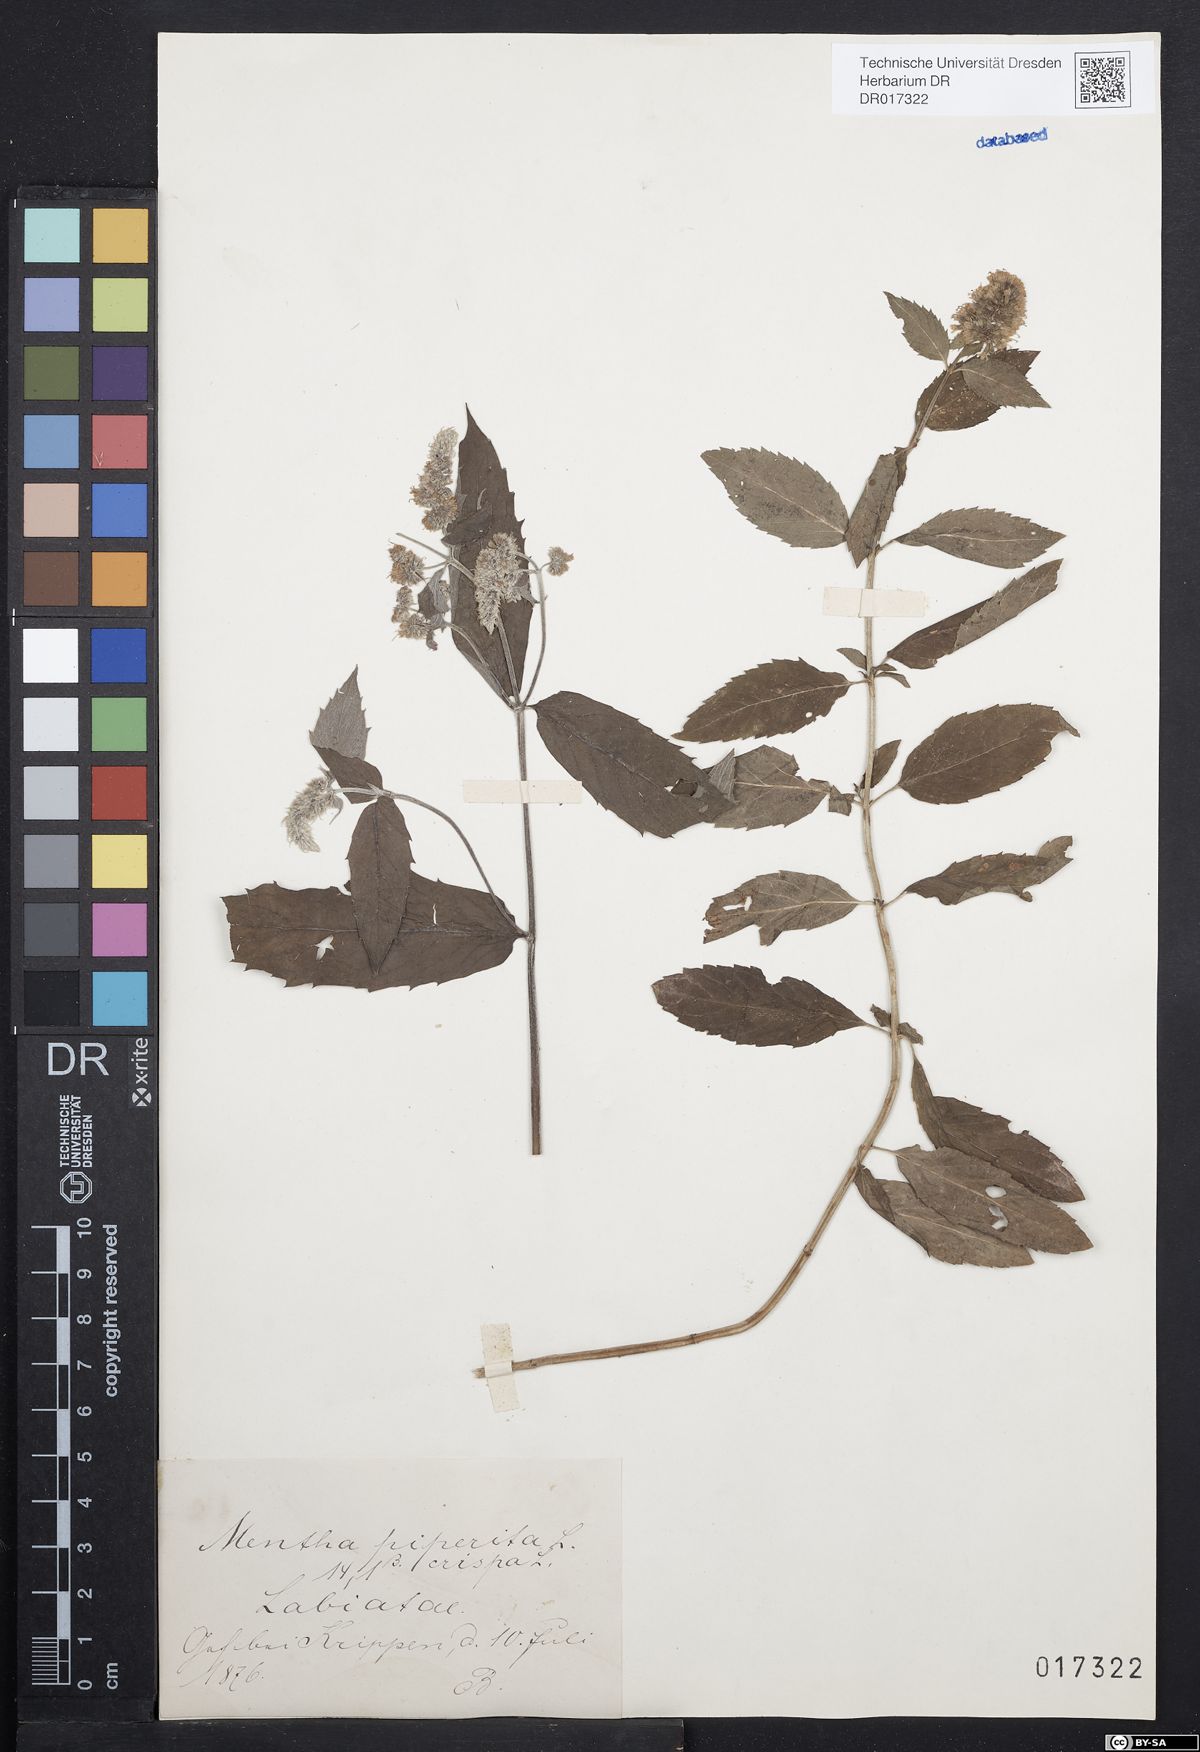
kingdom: Plantae
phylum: Tracheophyta
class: Magnoliopsida
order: Lamiales
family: Lamiaceae
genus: Mentha
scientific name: Mentha piperita
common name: Peppermint
